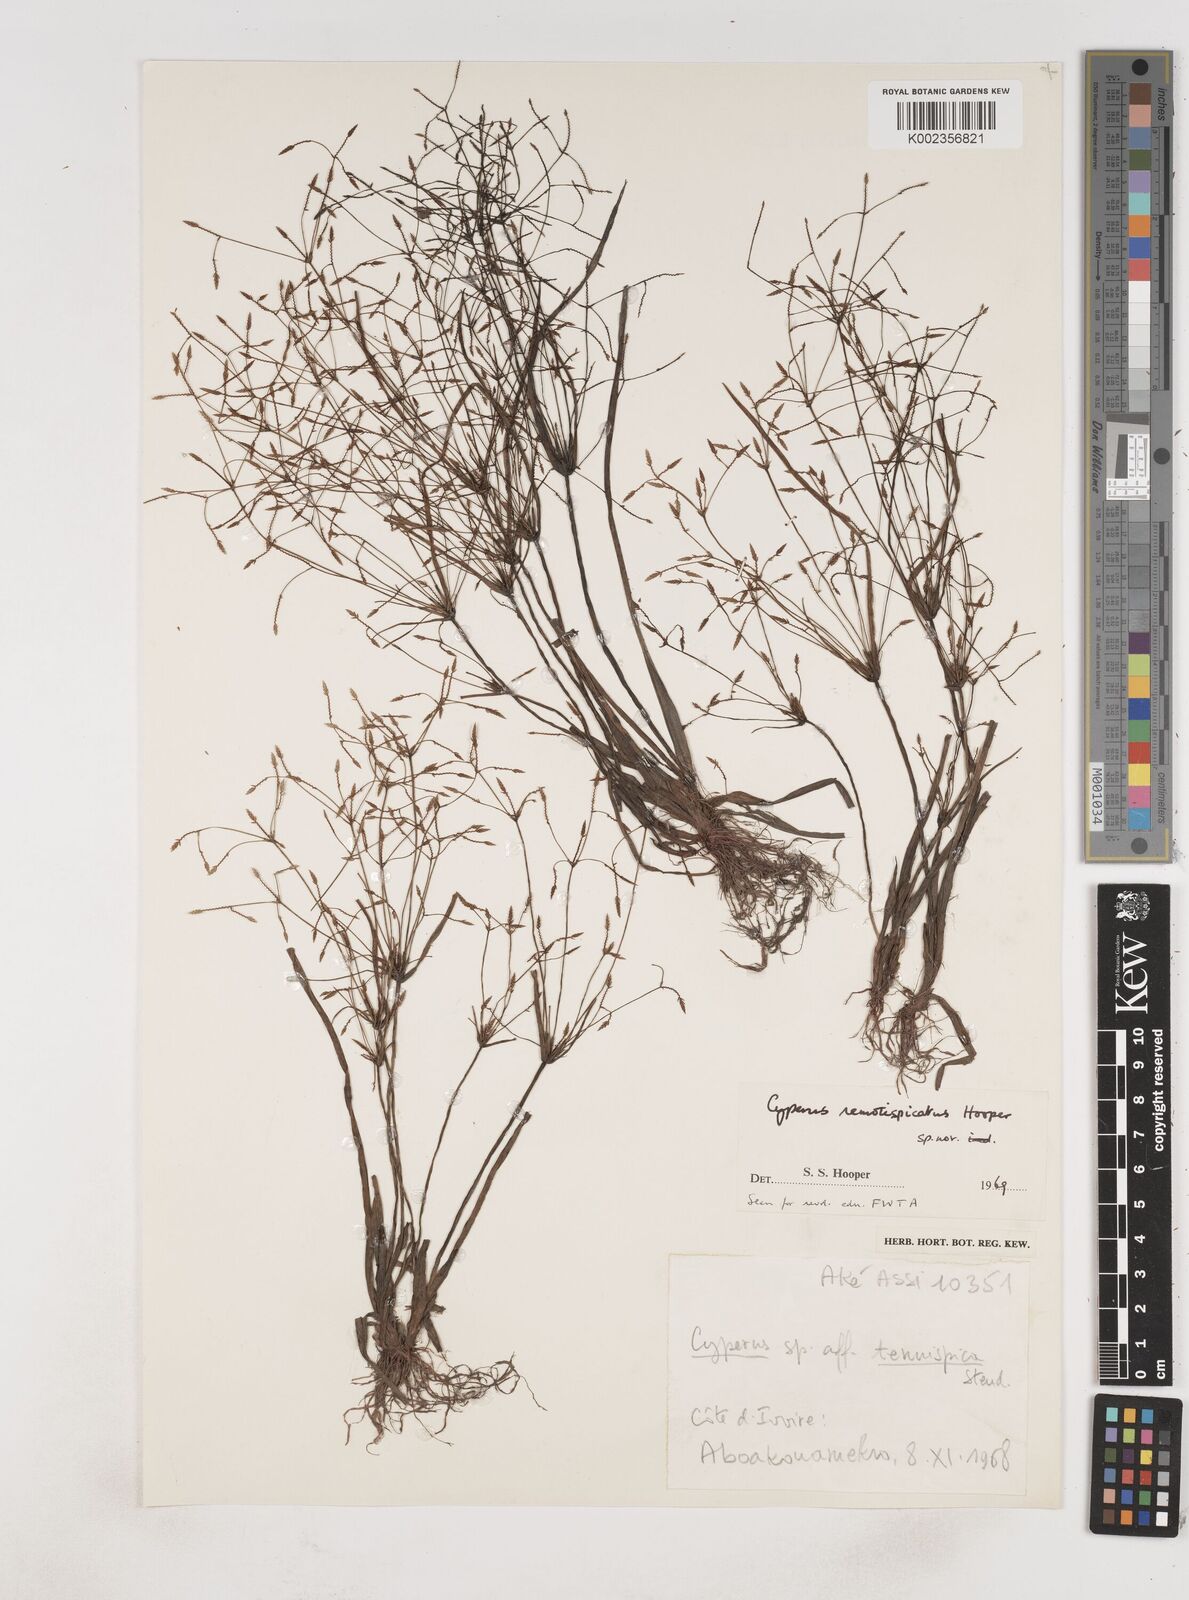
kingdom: Plantae
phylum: Tracheophyta
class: Liliopsida
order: Poales
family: Cyperaceae
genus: Cyperus
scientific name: Cyperus remotispicatus
